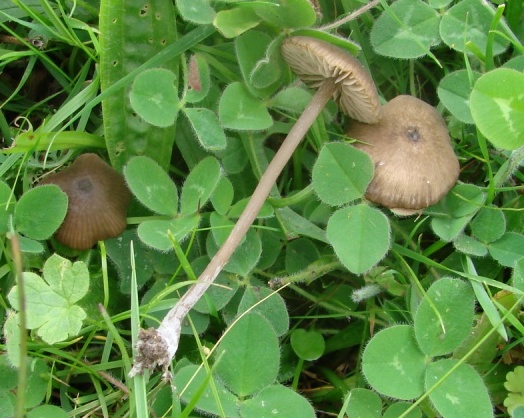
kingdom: Fungi
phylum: Basidiomycota
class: Agaricomycetes
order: Agaricales
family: Entolomataceae
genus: Entoloma
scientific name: Entoloma incognitum
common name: sommer-rødblad
